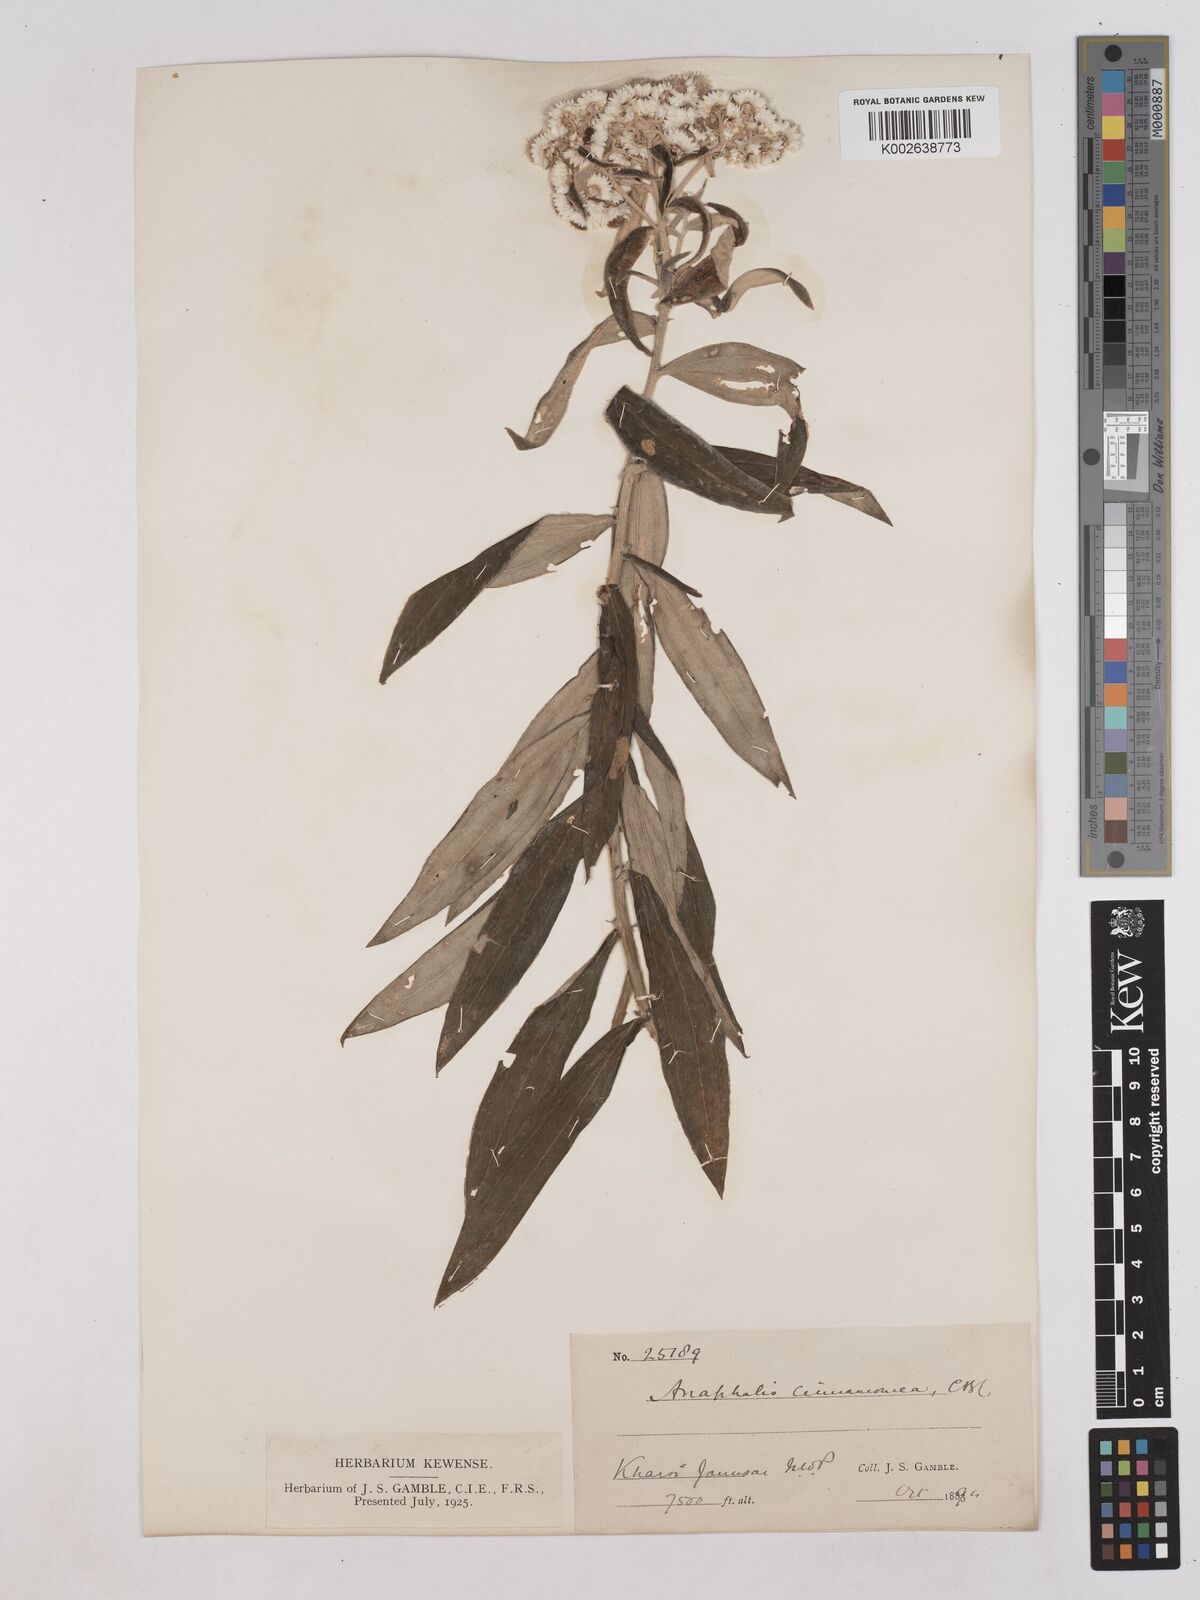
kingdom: Plantae
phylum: Tracheophyta
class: Magnoliopsida
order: Asterales
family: Asteraceae
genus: Anaphalis
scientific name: Anaphalis marcescens
